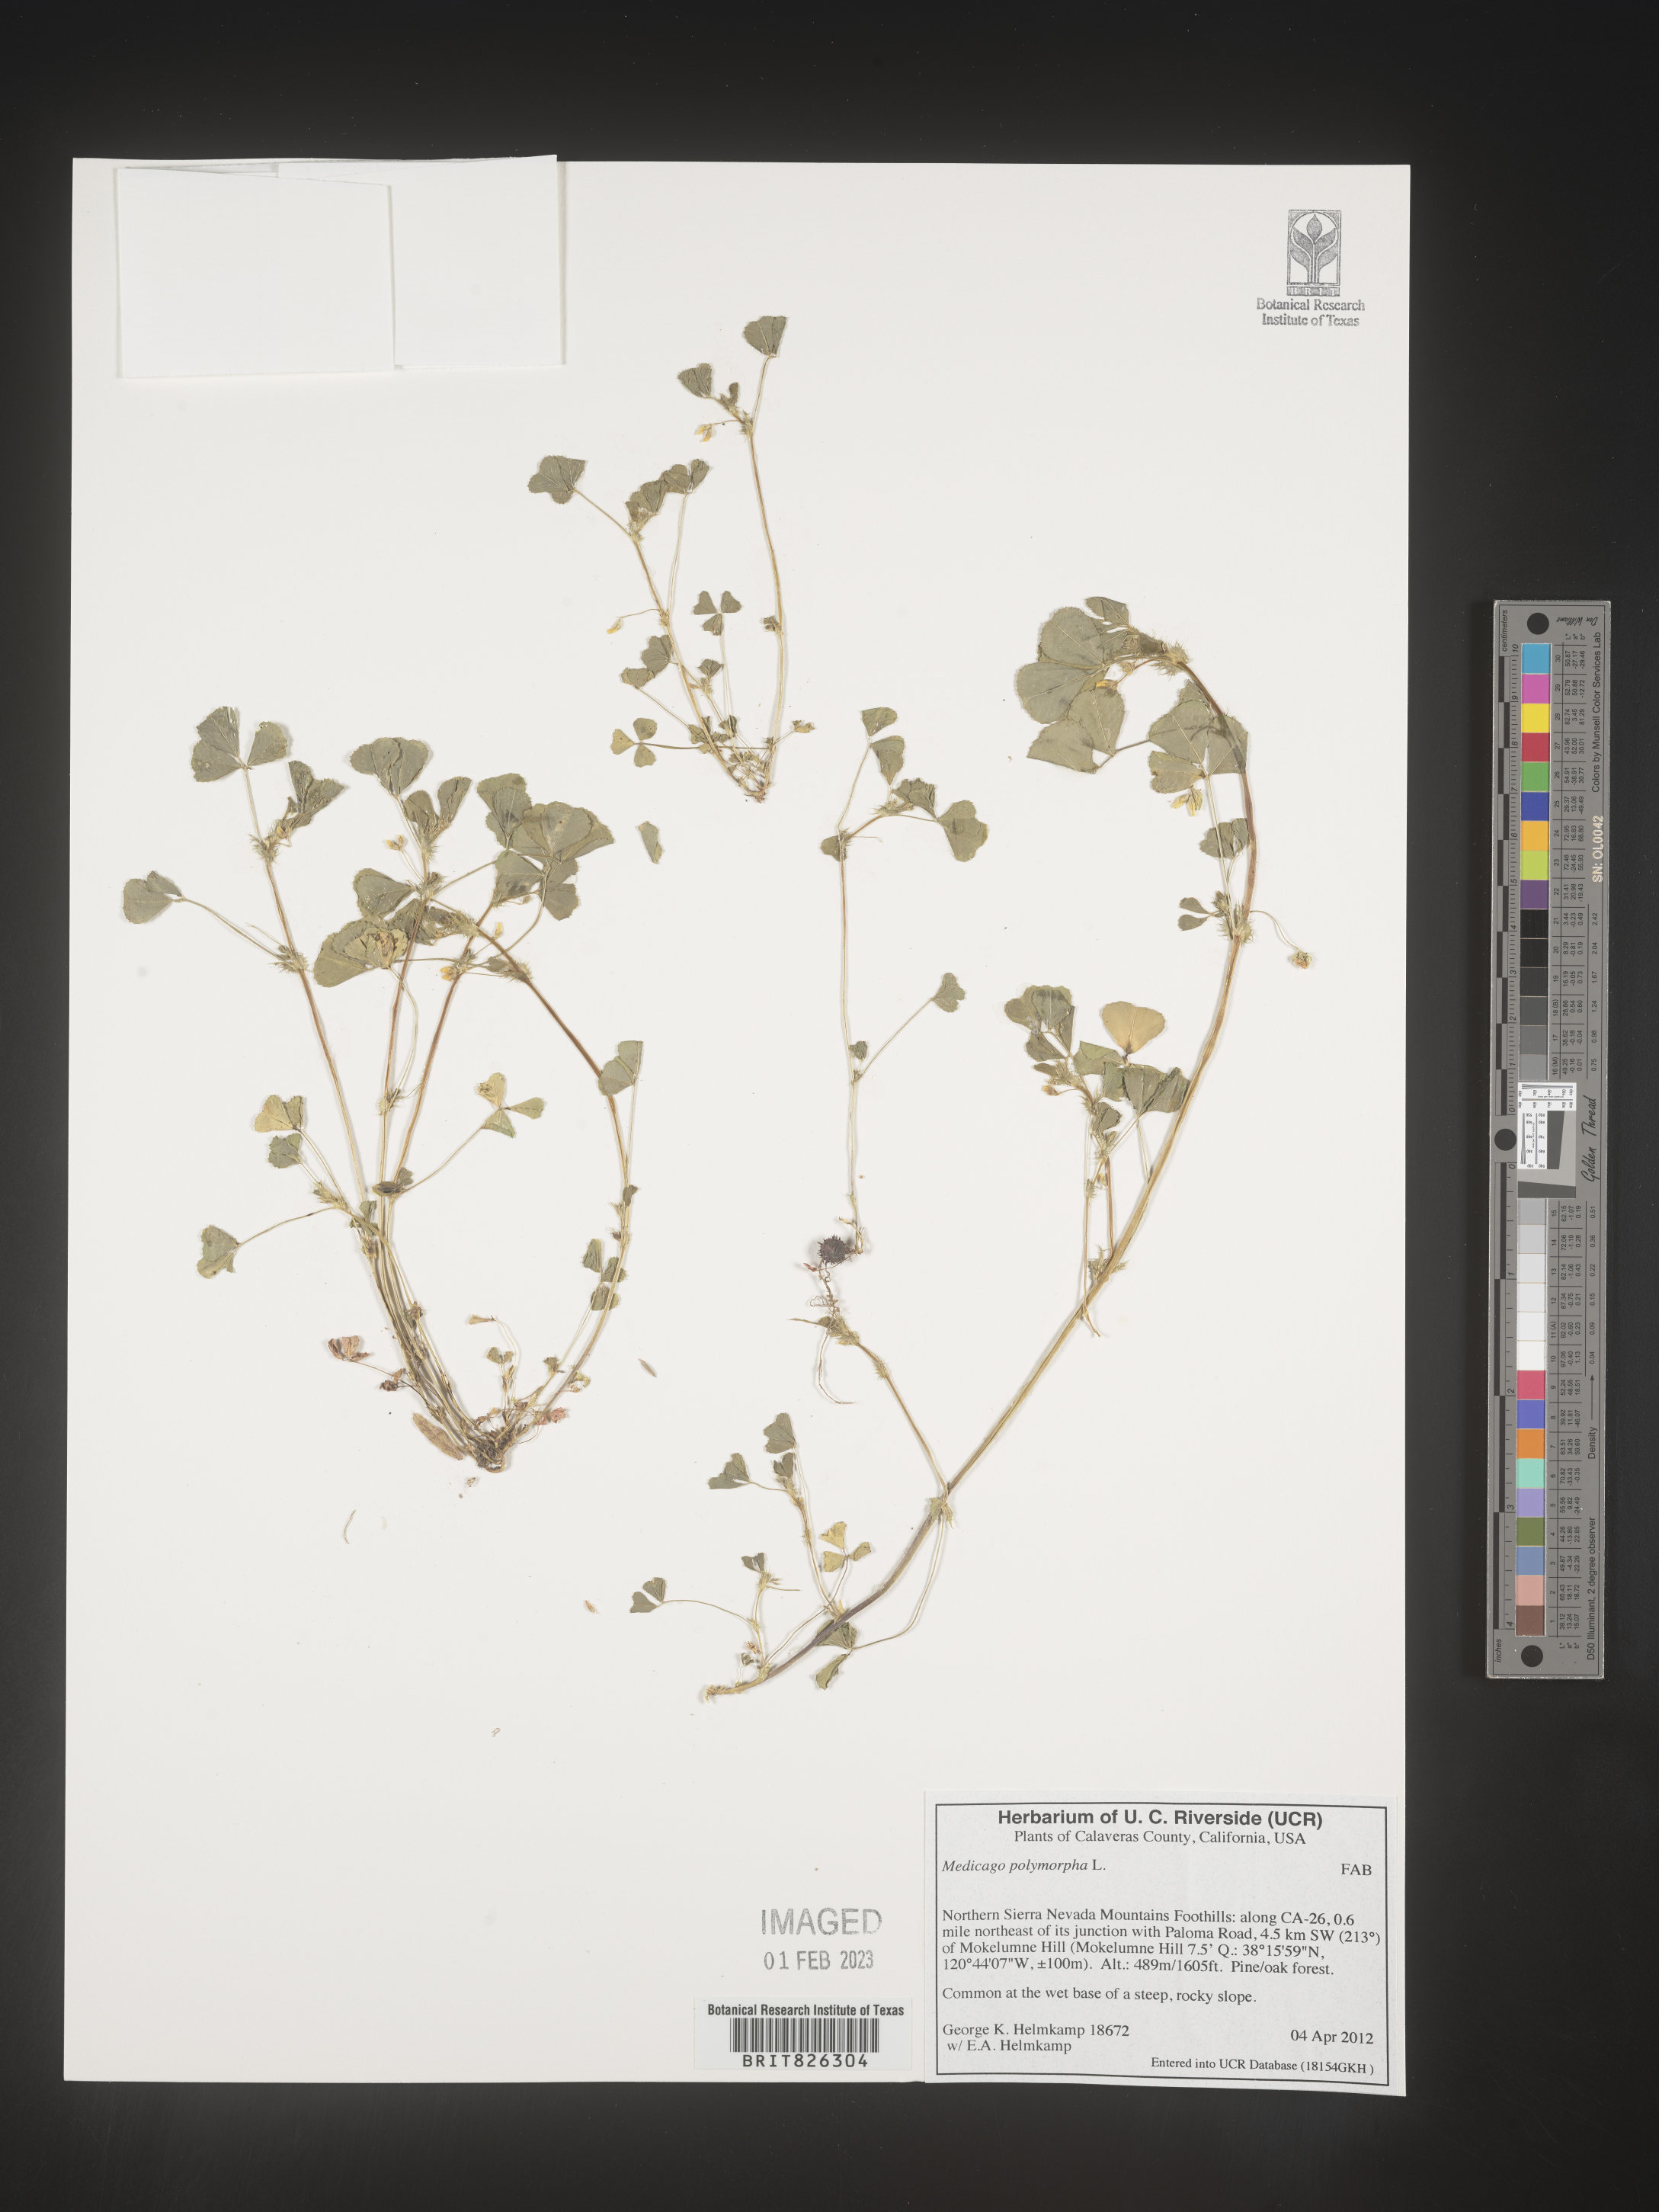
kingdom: Plantae
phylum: Tracheophyta
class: Magnoliopsida
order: Fabales
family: Fabaceae
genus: Medicago
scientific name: Medicago polymorpha
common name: Burclover
